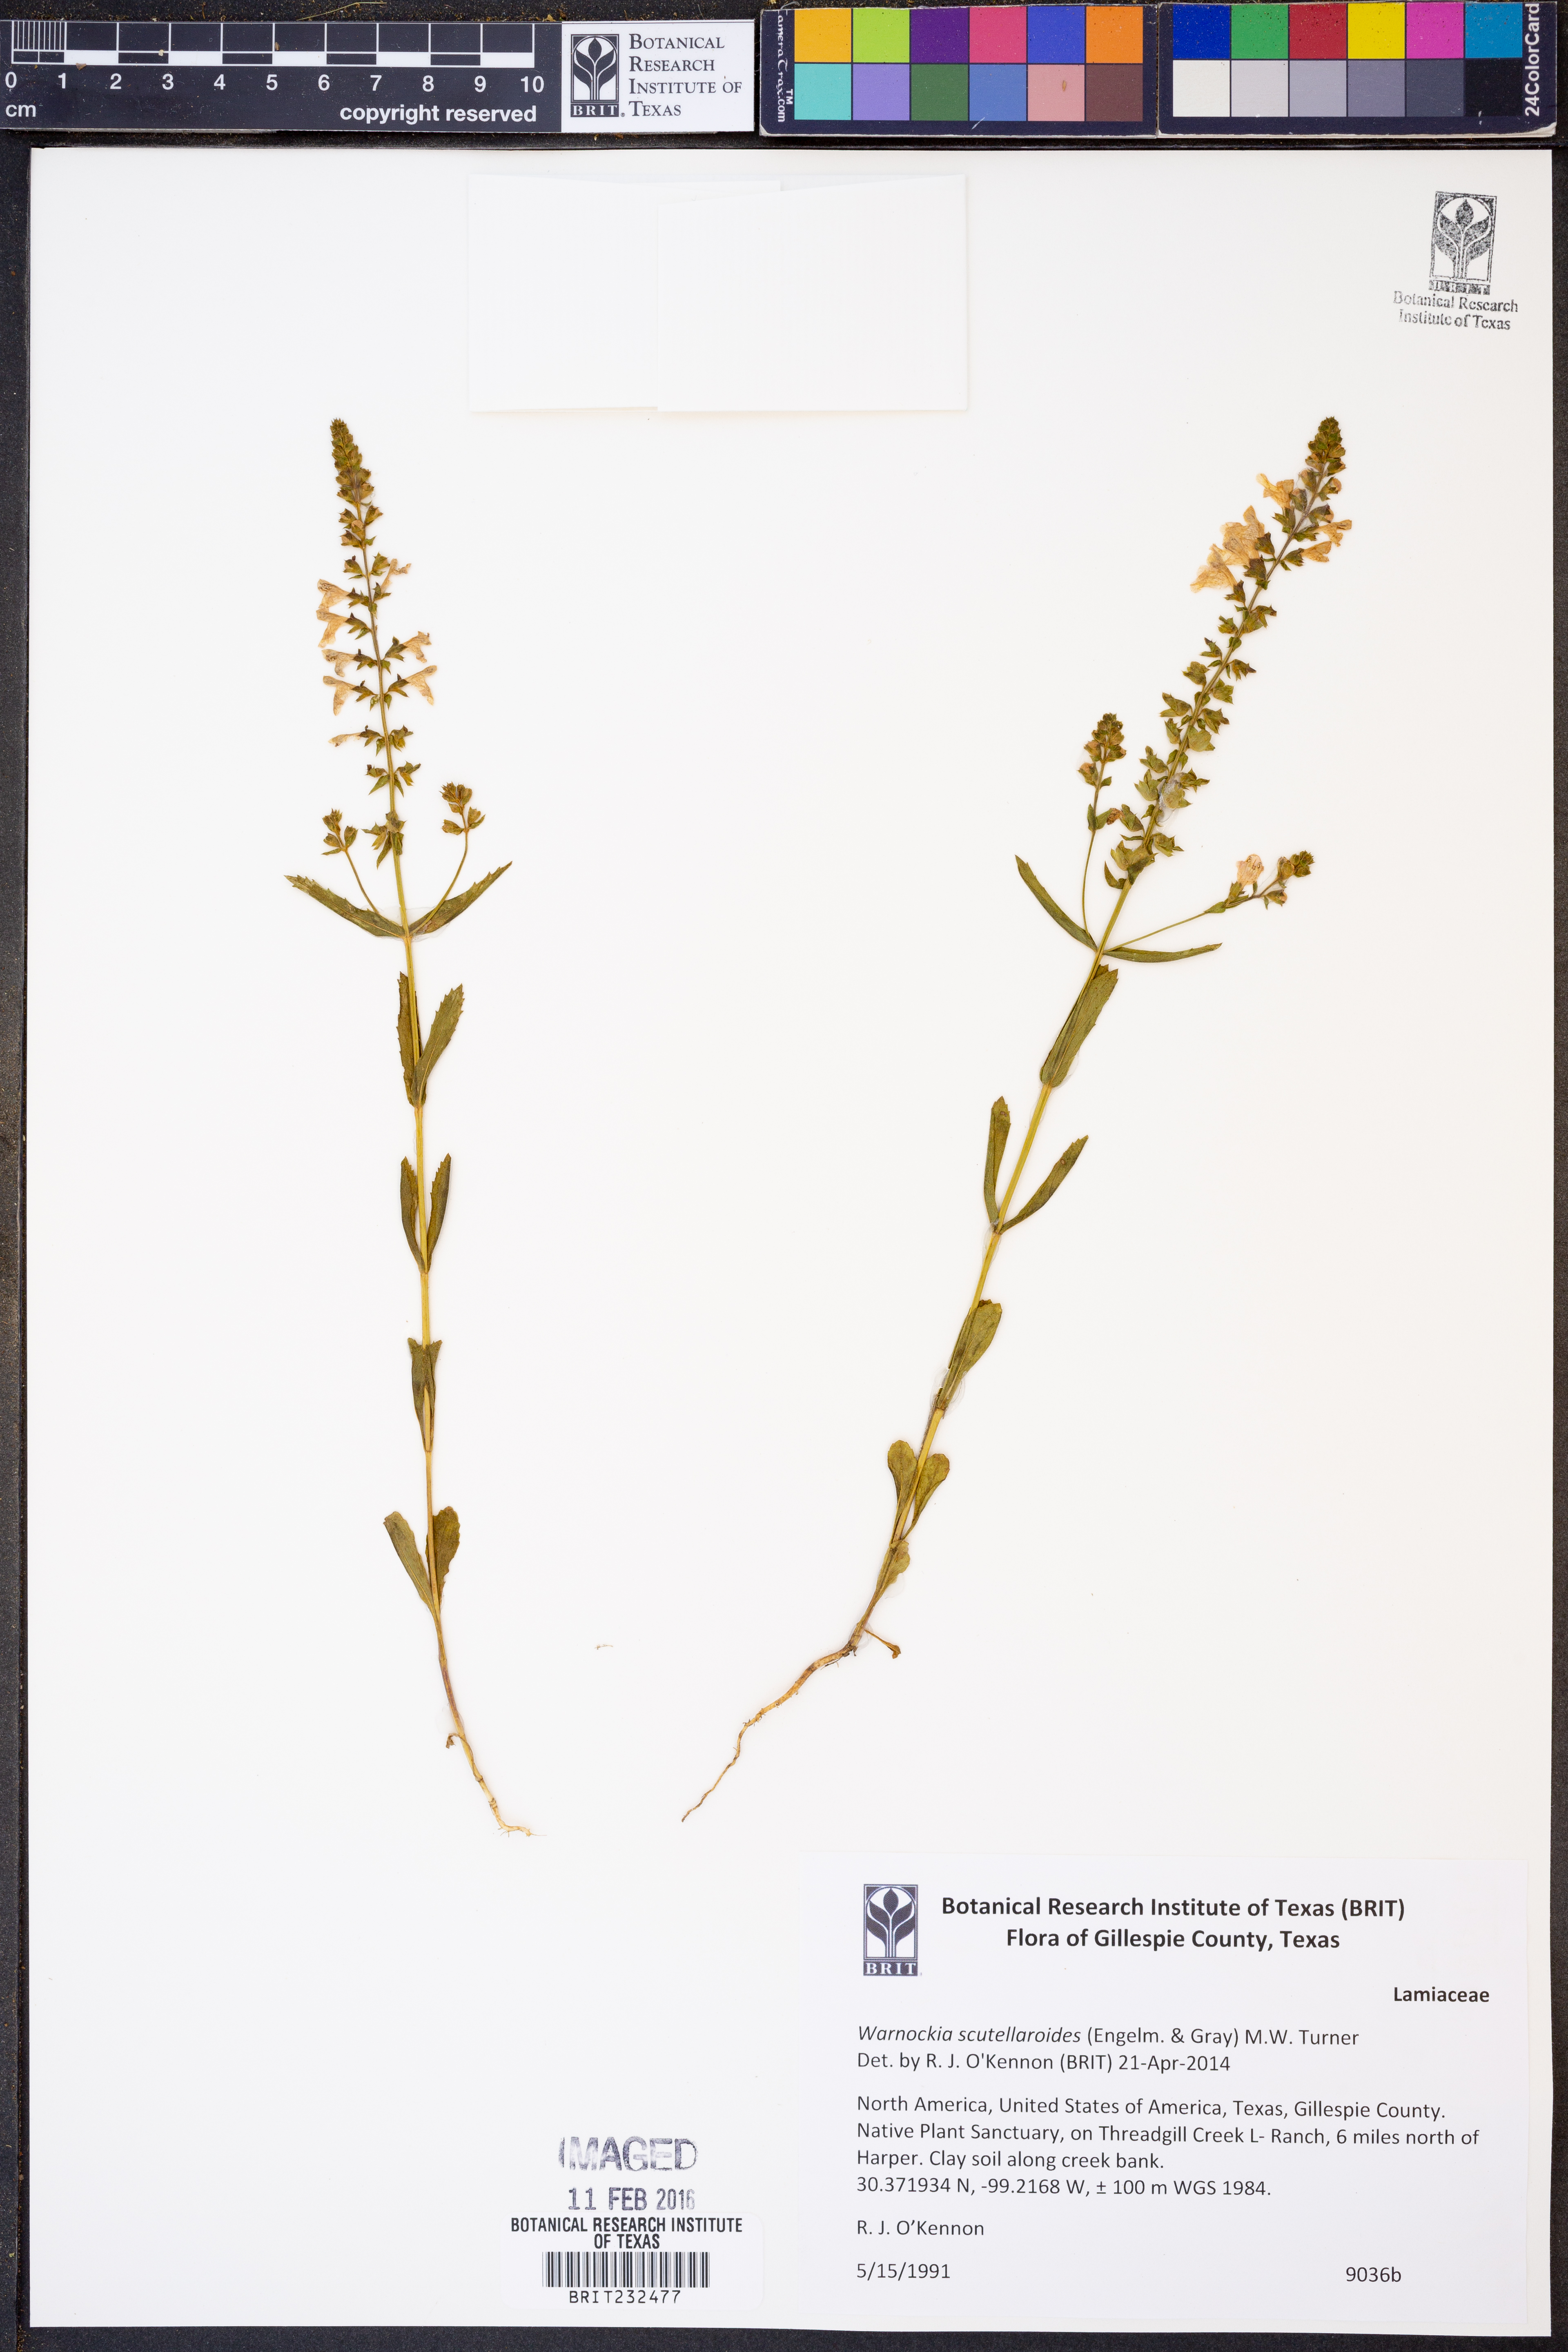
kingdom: Plantae
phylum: Tracheophyta
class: Magnoliopsida
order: Lamiales
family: Lamiaceae
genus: Warnockia
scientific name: Warnockia scutellarioides
